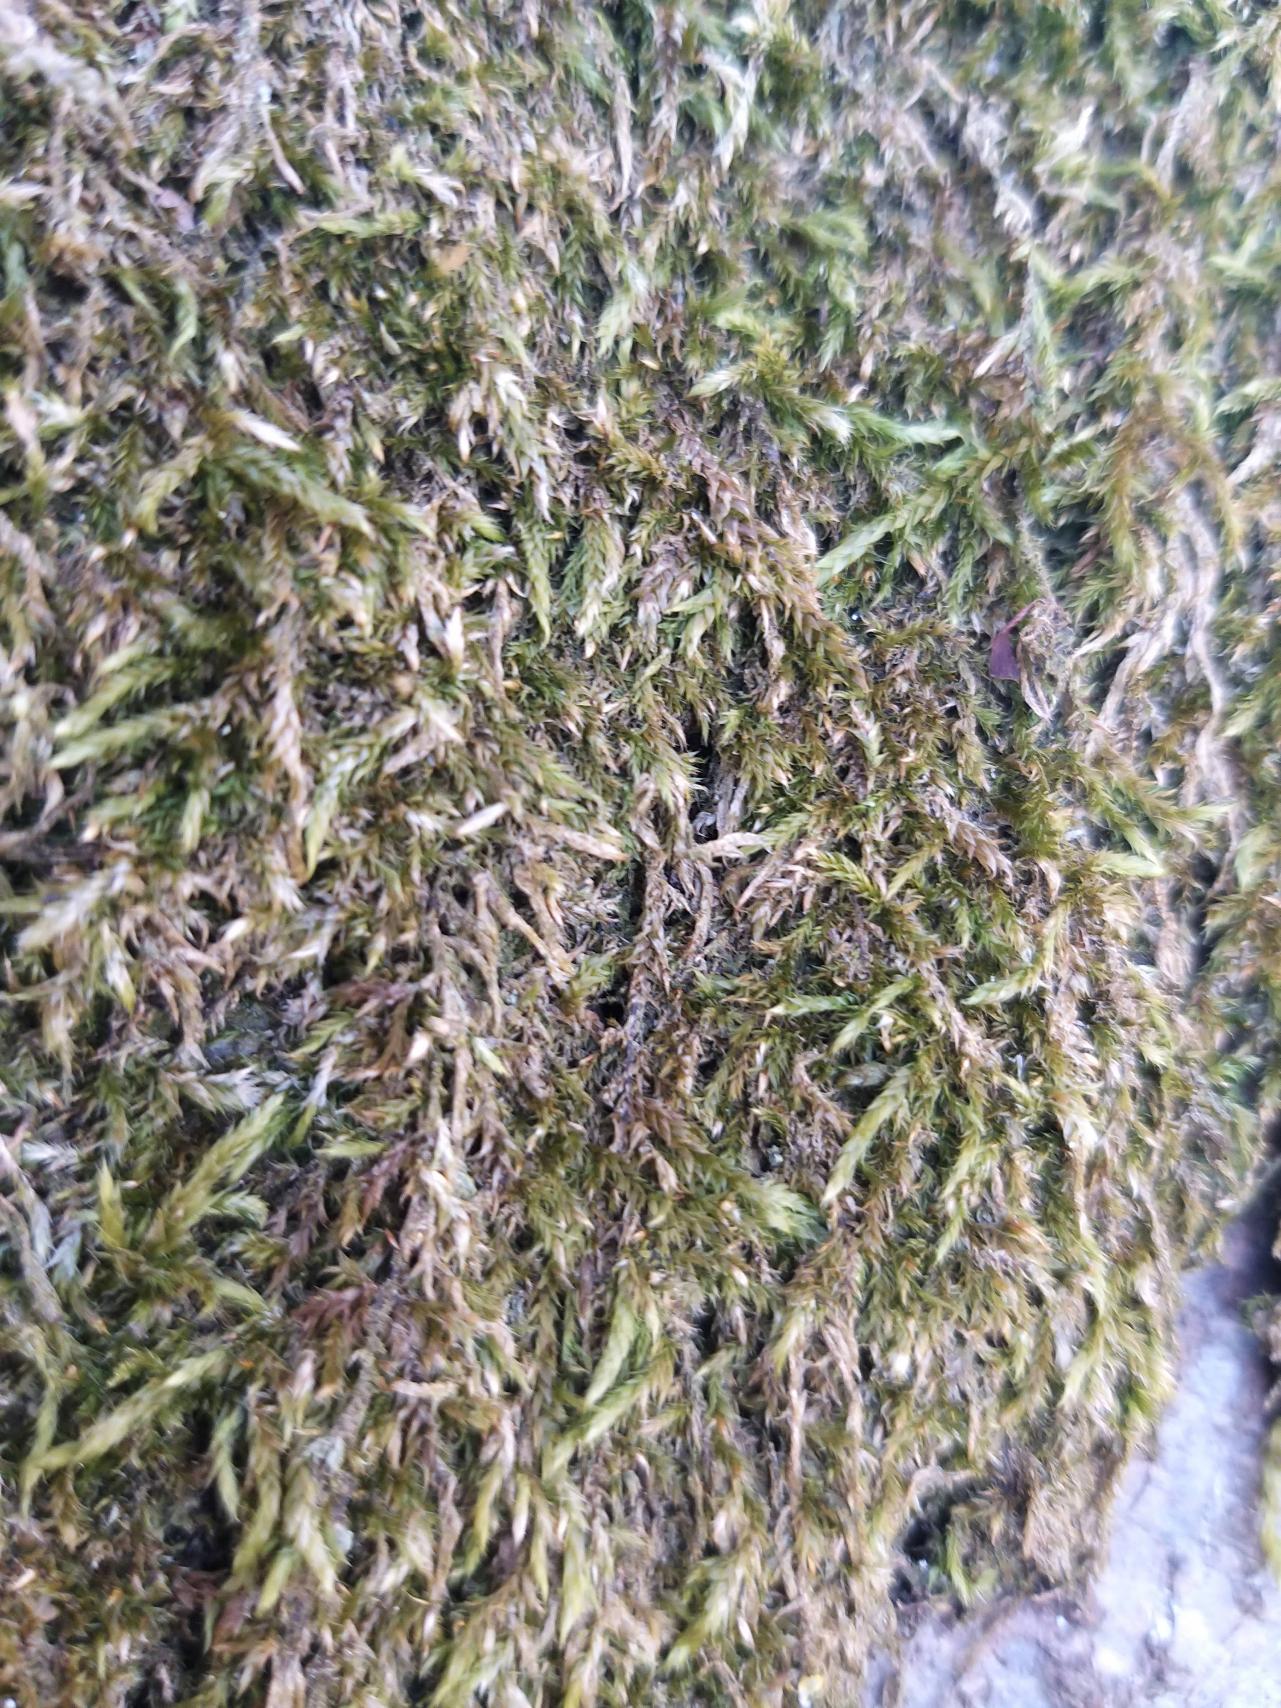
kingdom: Plantae
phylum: Bryophyta
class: Bryopsida
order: Hypnales
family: Hypnaceae
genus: Hypnum
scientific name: Hypnum
